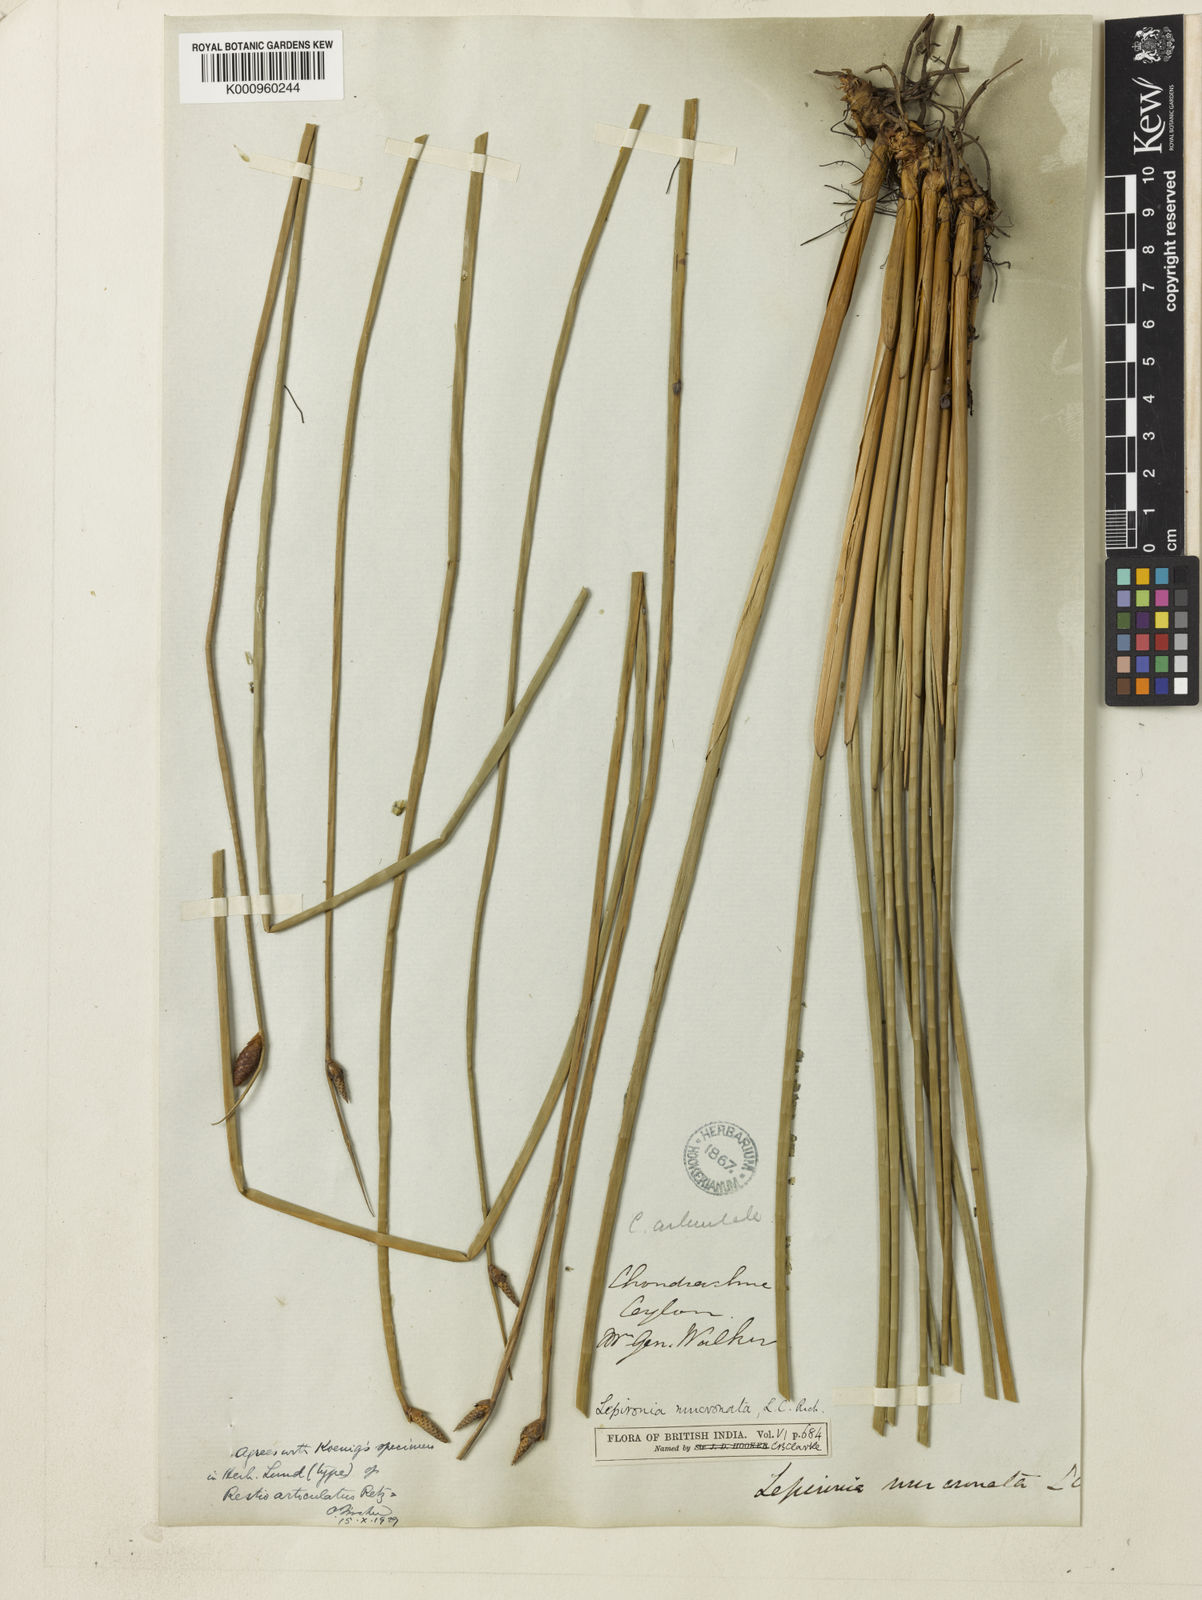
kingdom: Plantae
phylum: Tracheophyta
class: Liliopsida
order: Poales
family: Cyperaceae
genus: Lepironia
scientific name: Lepironia articulata
